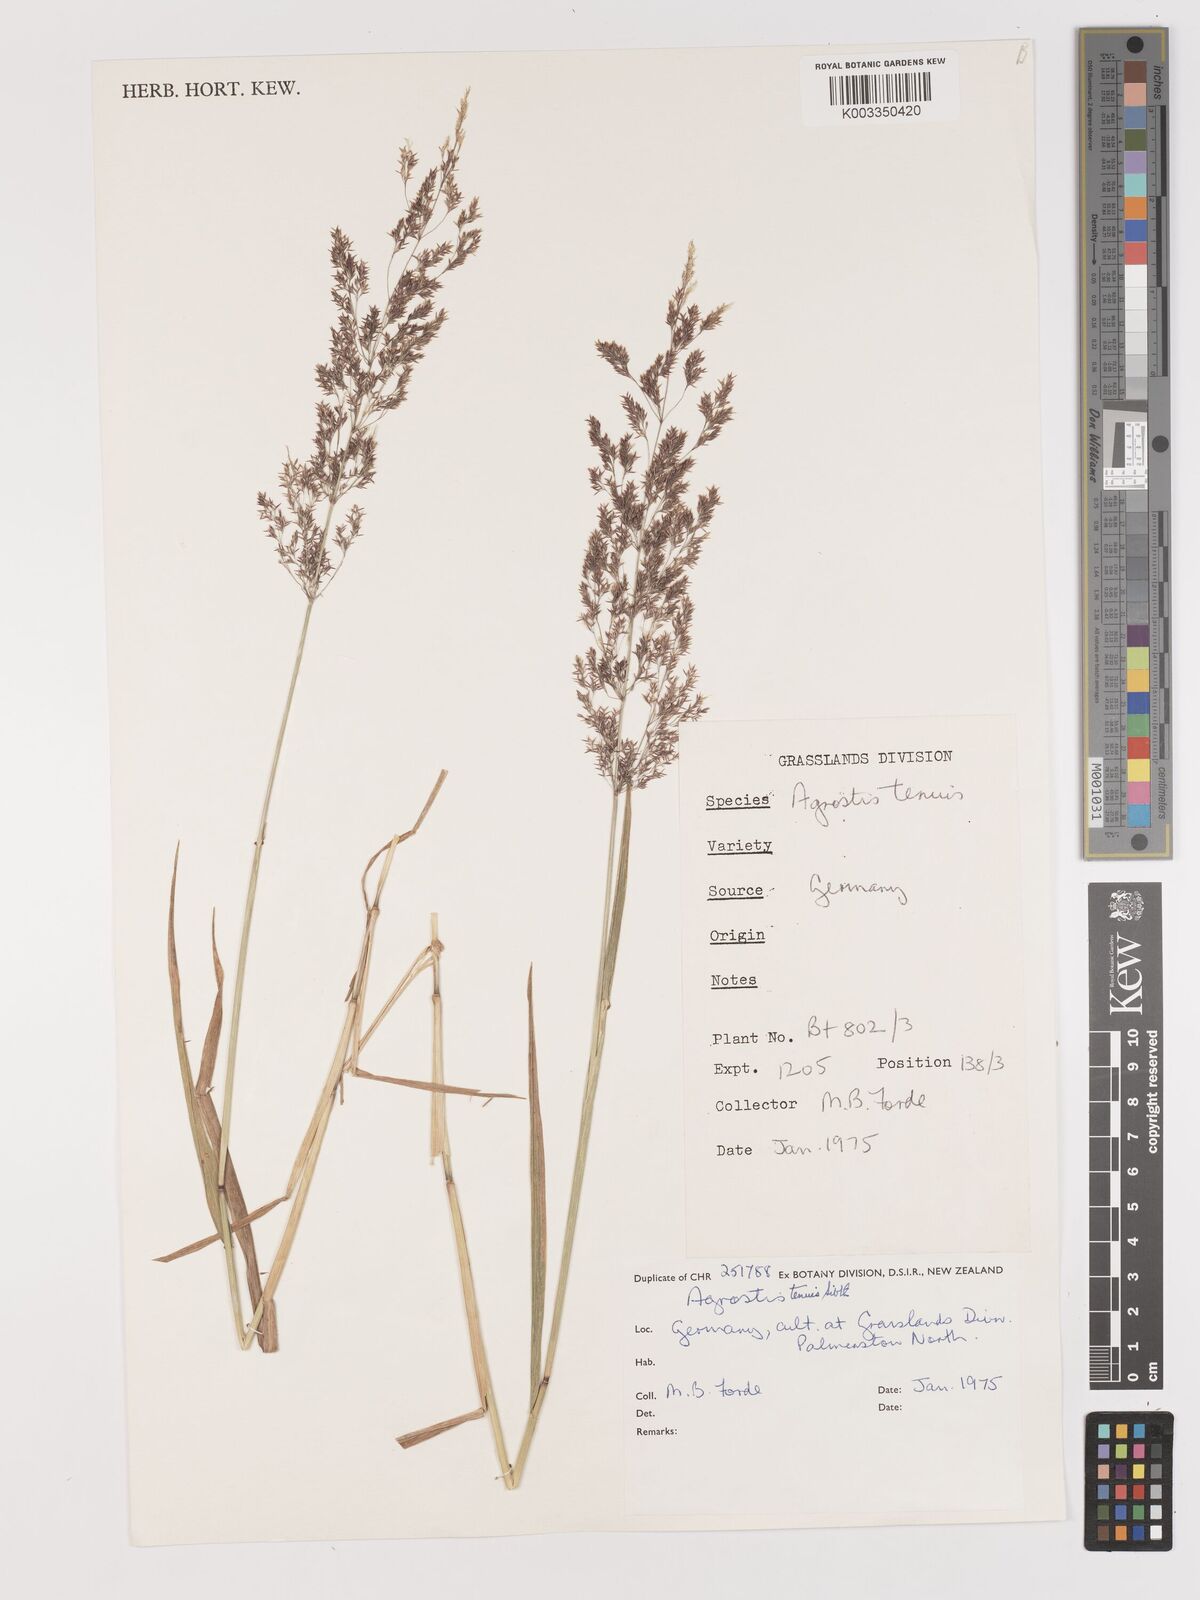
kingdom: Plantae
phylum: Tracheophyta
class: Liliopsida
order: Poales
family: Poaceae
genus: Agrostis
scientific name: Agrostis capillaris
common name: Colonial bentgrass
